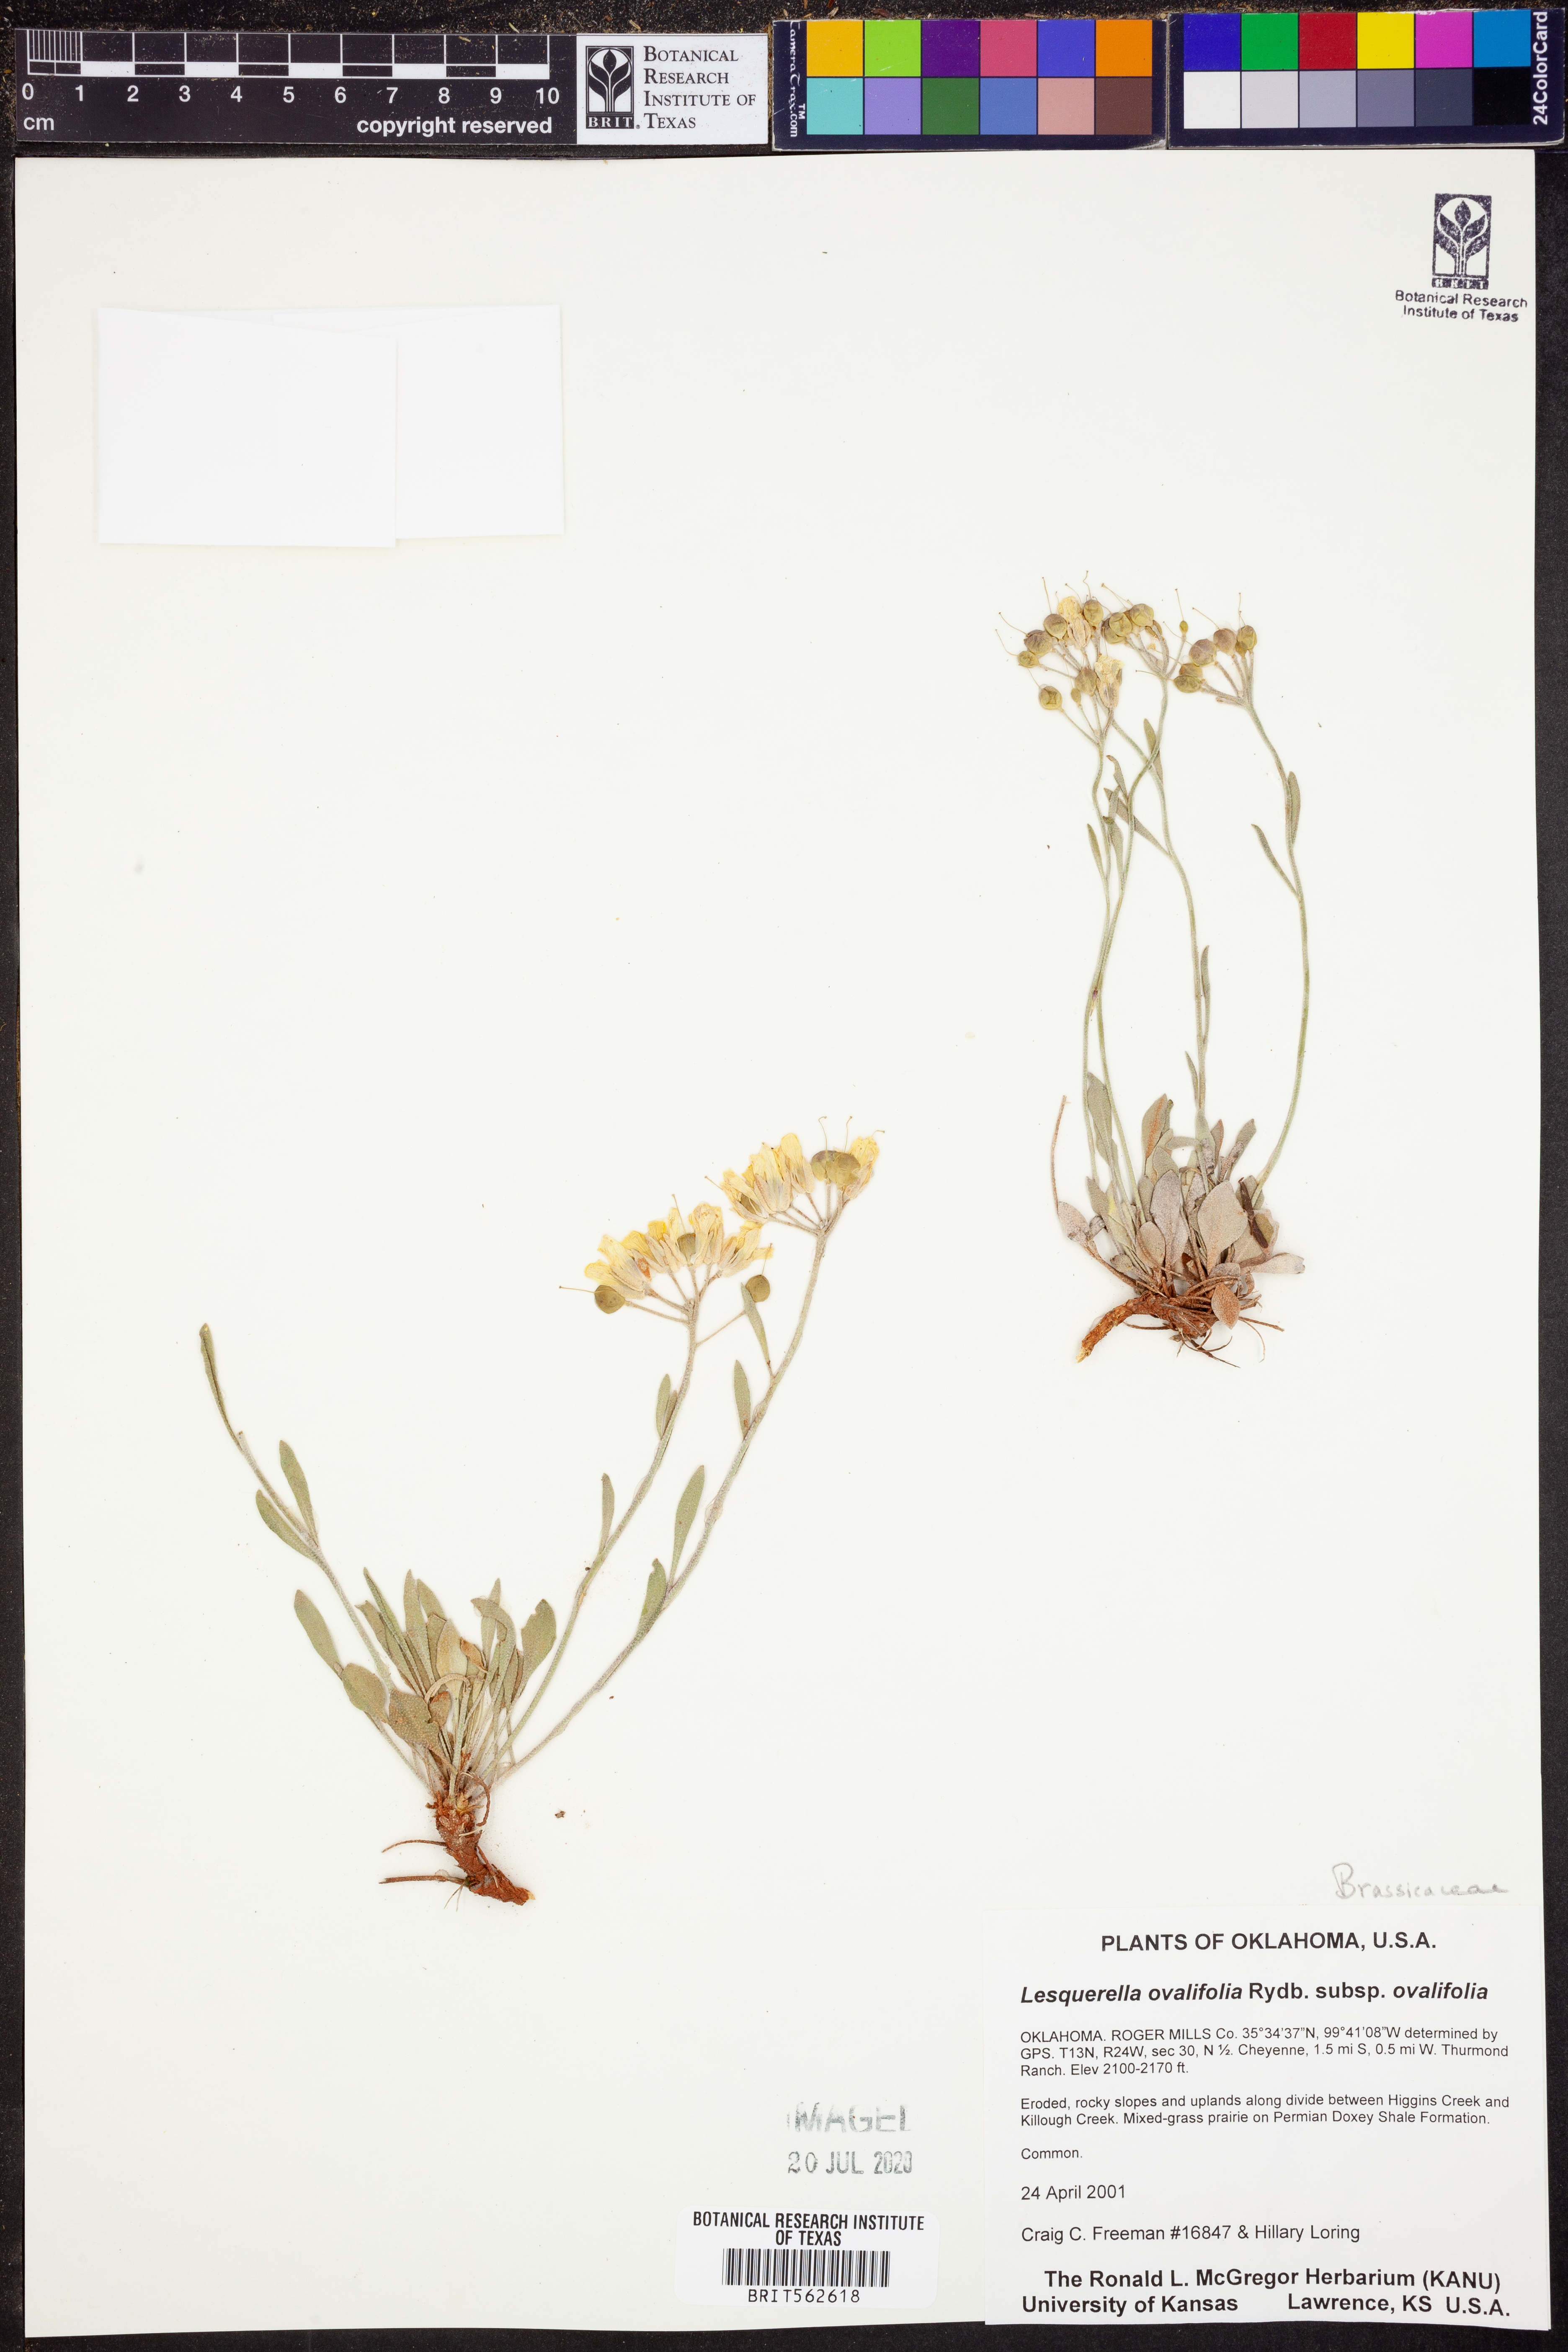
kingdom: Plantae
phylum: Tracheophyta
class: Magnoliopsida
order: Brassicales
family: Brassicaceae
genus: Physaria
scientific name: Physaria ovalifolia
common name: Round-leaf bladderpod
